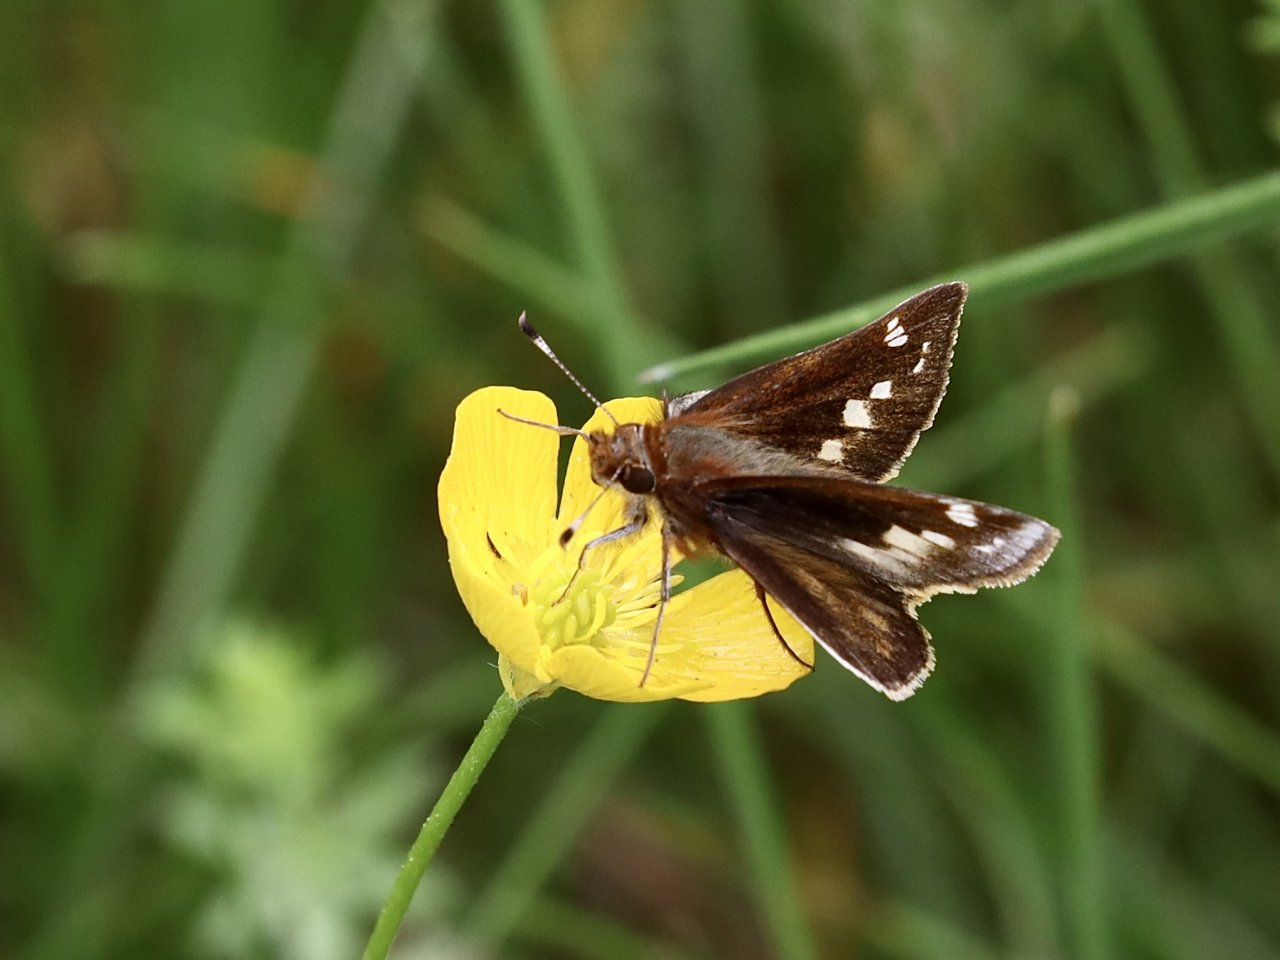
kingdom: Animalia
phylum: Arthropoda
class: Insecta
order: Lepidoptera
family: Hesperiidae
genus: Lon
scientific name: Lon zabulon
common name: Zabulon Skipper
